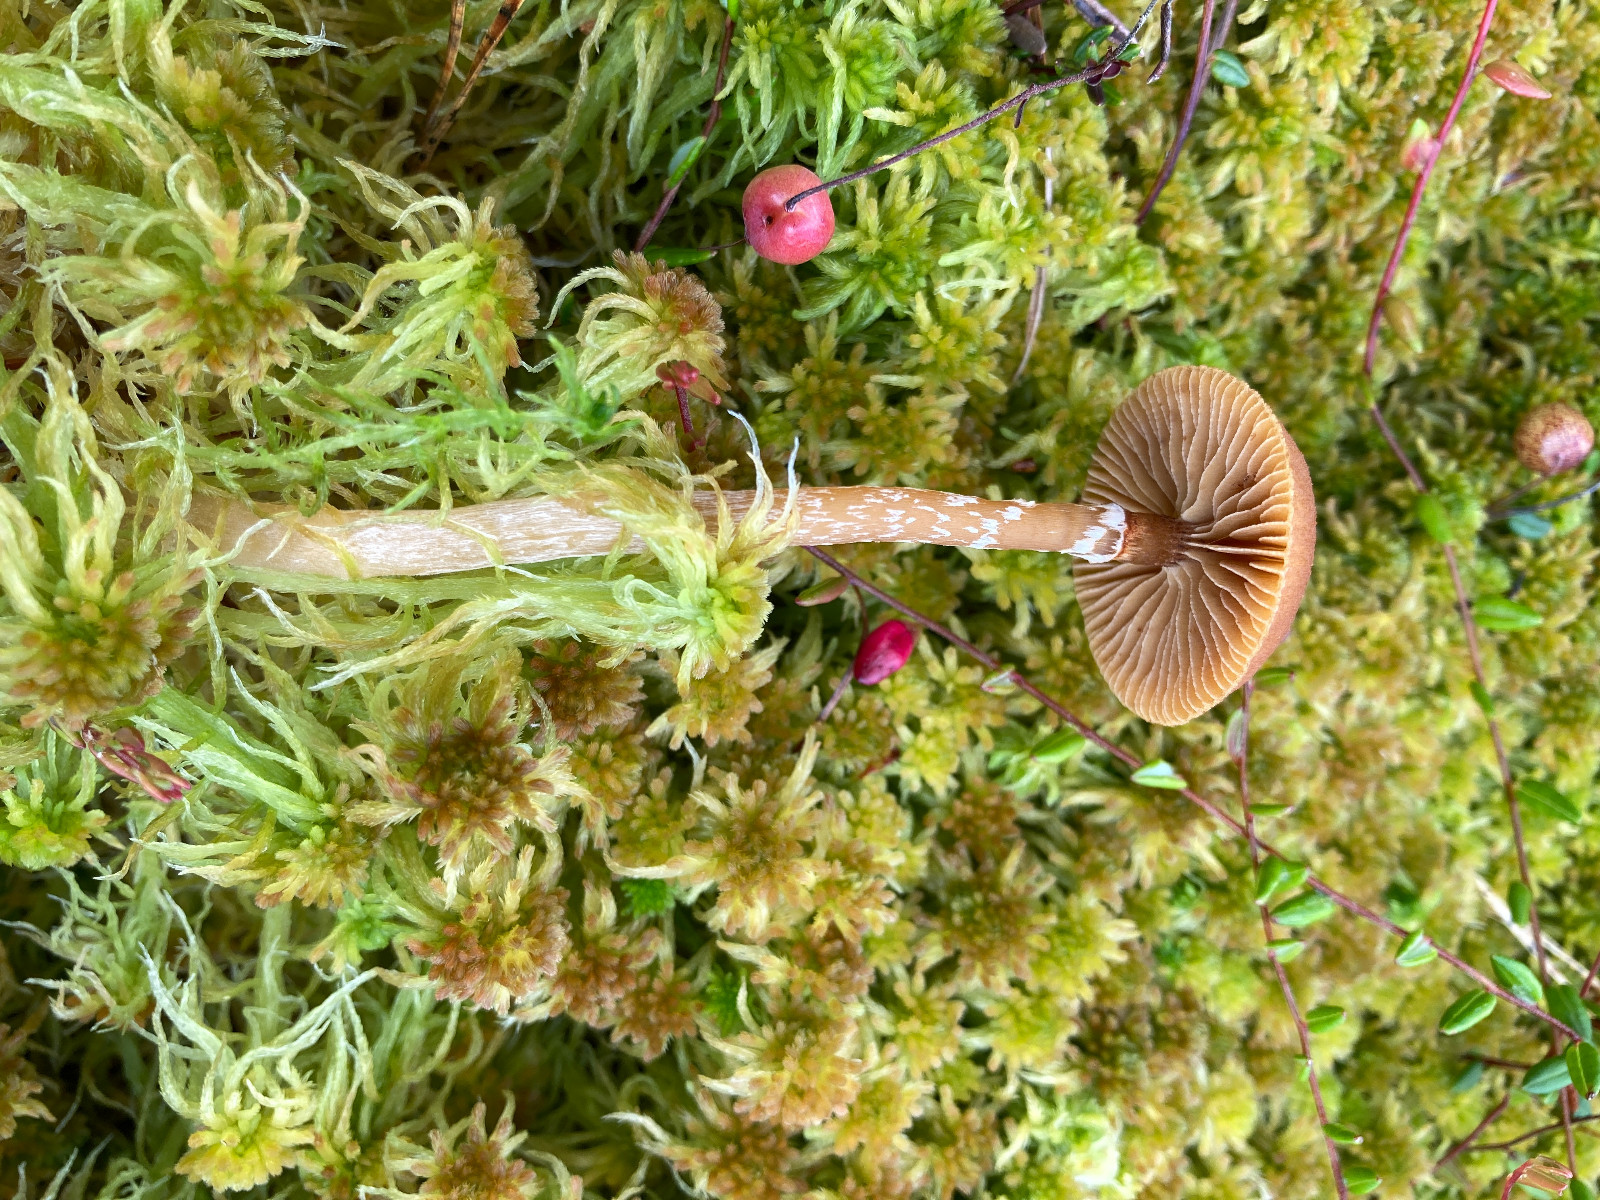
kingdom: Fungi
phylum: Basidiomycota
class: Agaricomycetes
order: Agaricales
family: Hymenogastraceae
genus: Galerina
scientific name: Galerina paludosa
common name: mose-hjelmhat
